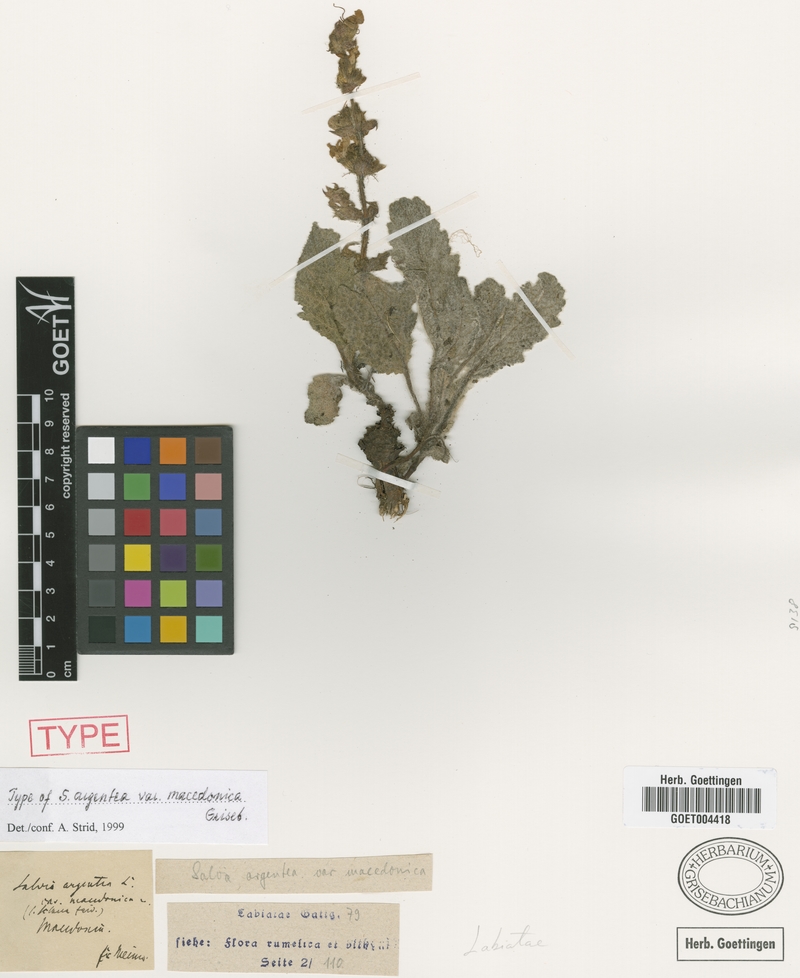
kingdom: Plantae
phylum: Tracheophyta
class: Magnoliopsida
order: Lamiales
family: Lamiaceae
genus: Salvia
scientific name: Salvia argentea
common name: Silver sage
